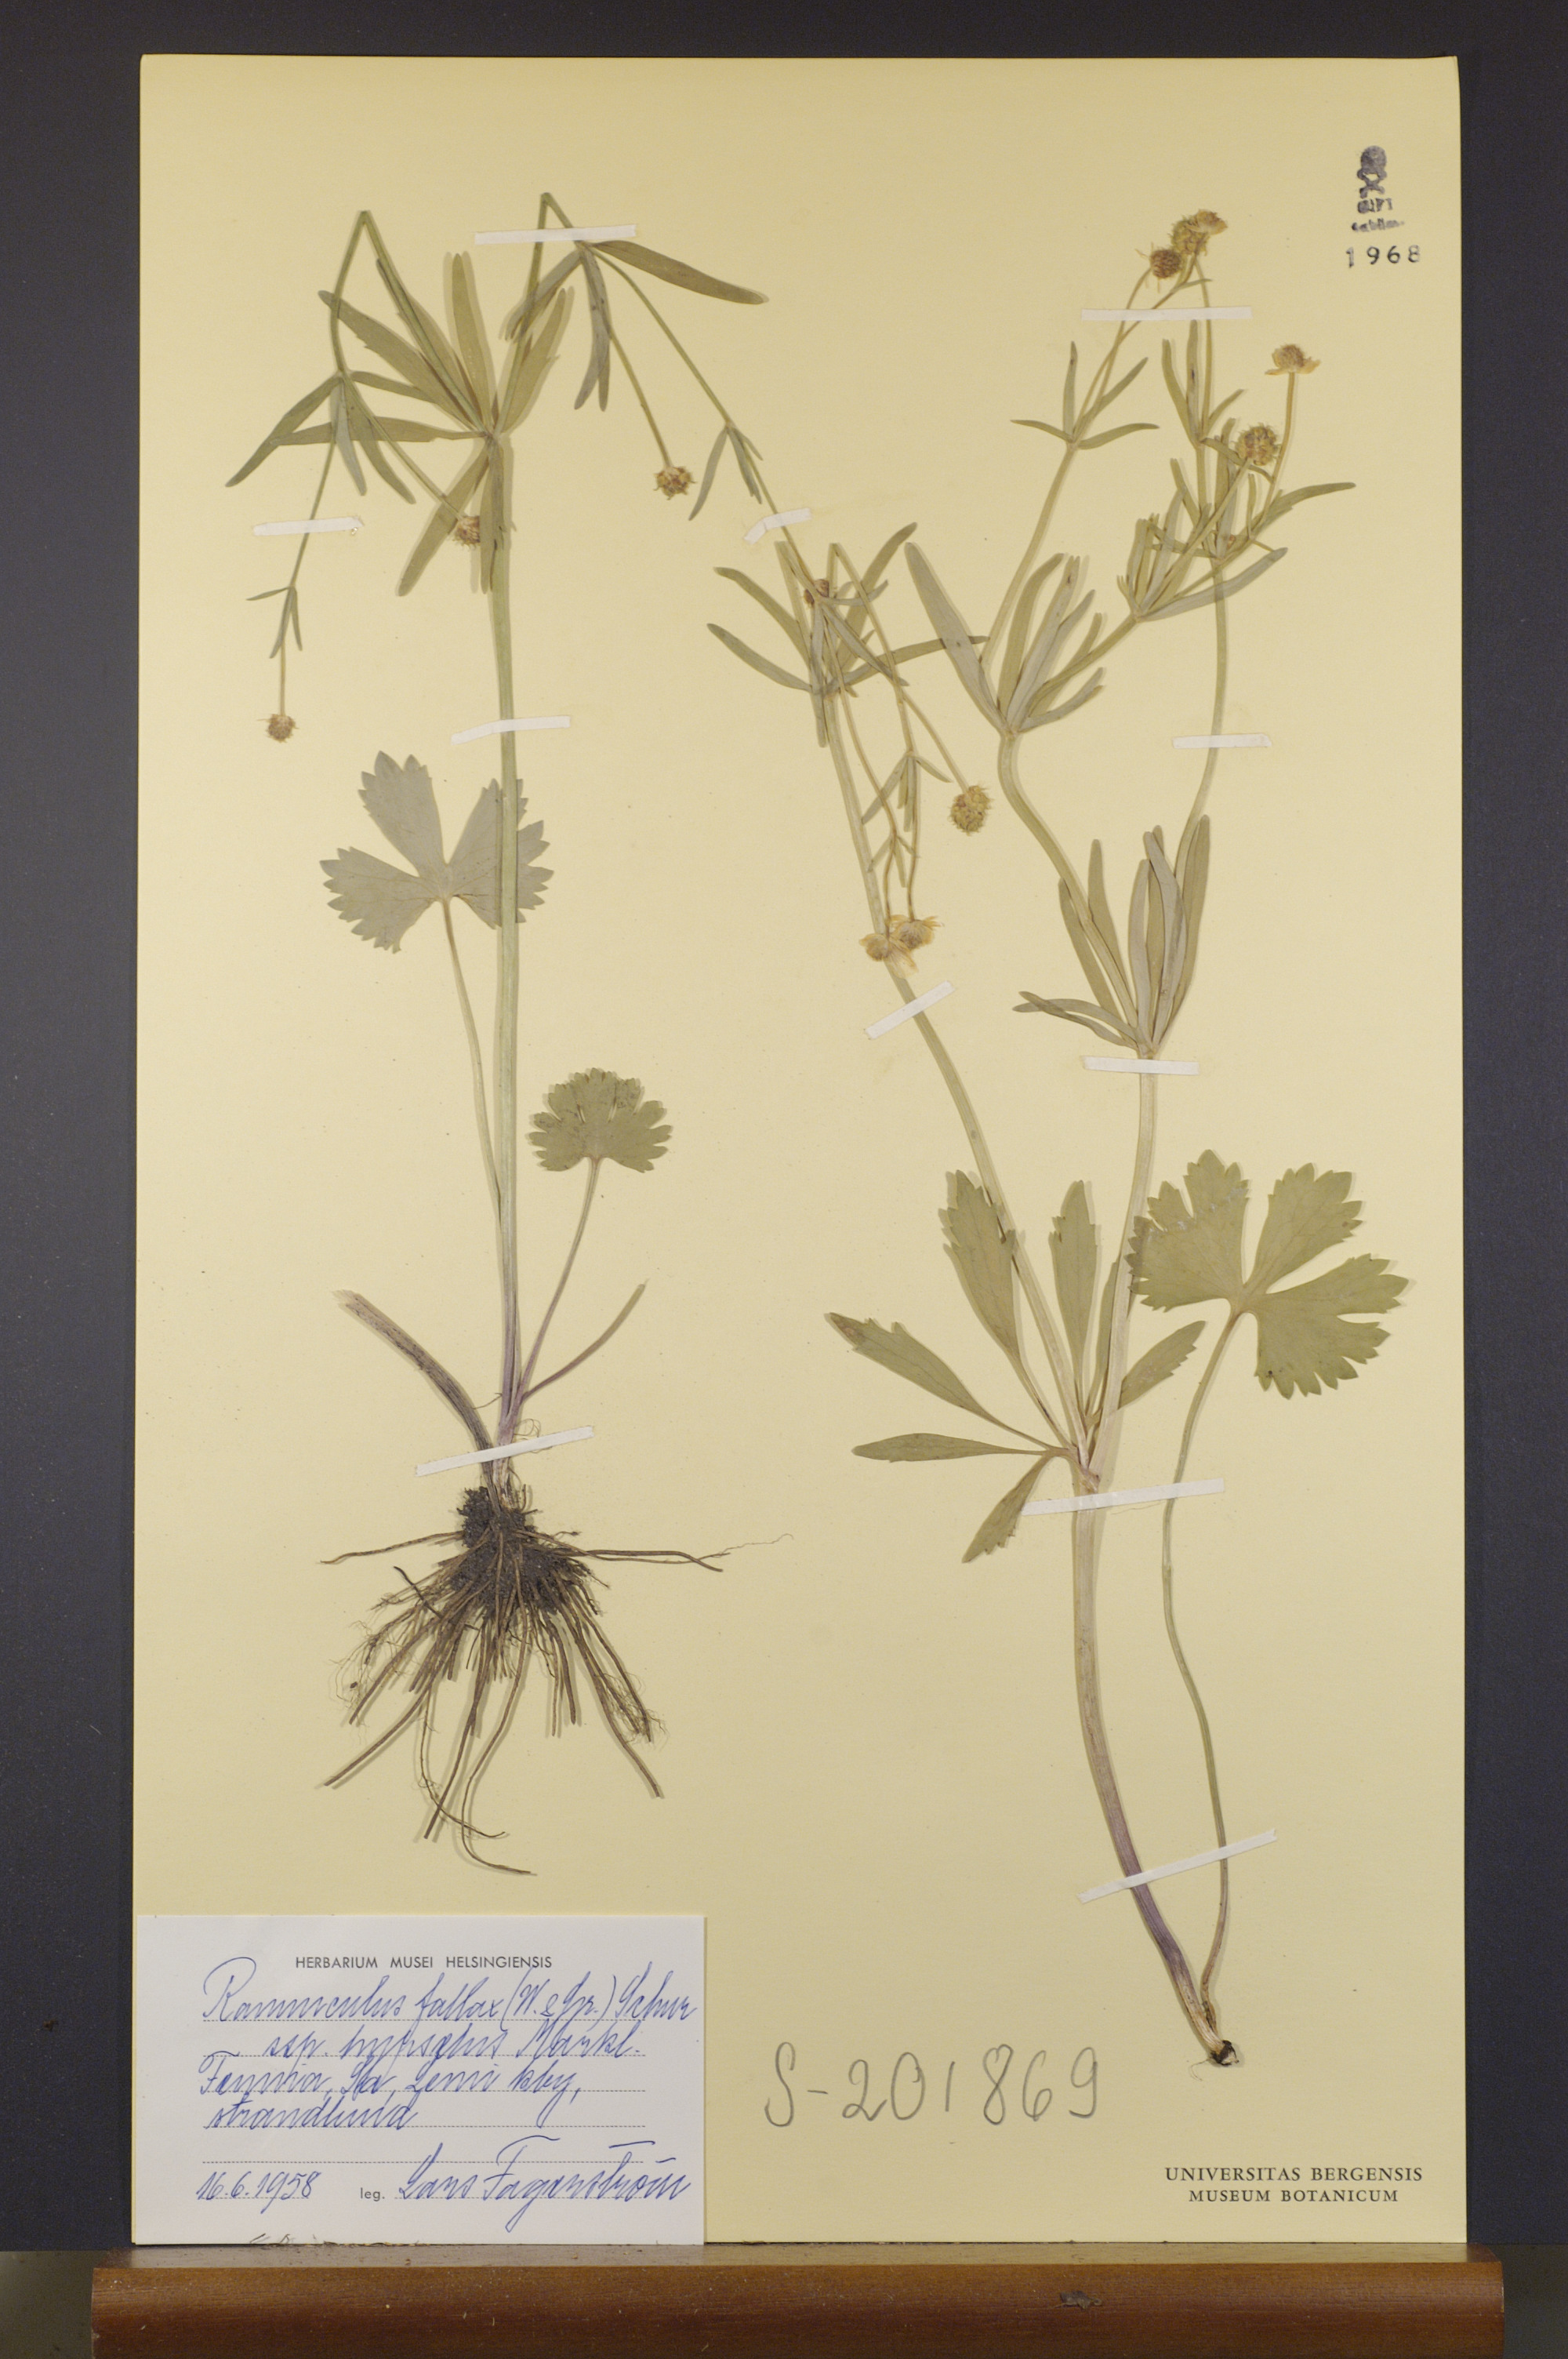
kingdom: Plantae
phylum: Tracheophyta
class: Magnoliopsida
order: Ranunculales
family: Ranunculaceae
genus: Ranunculus
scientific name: Ranunculus hypselus
